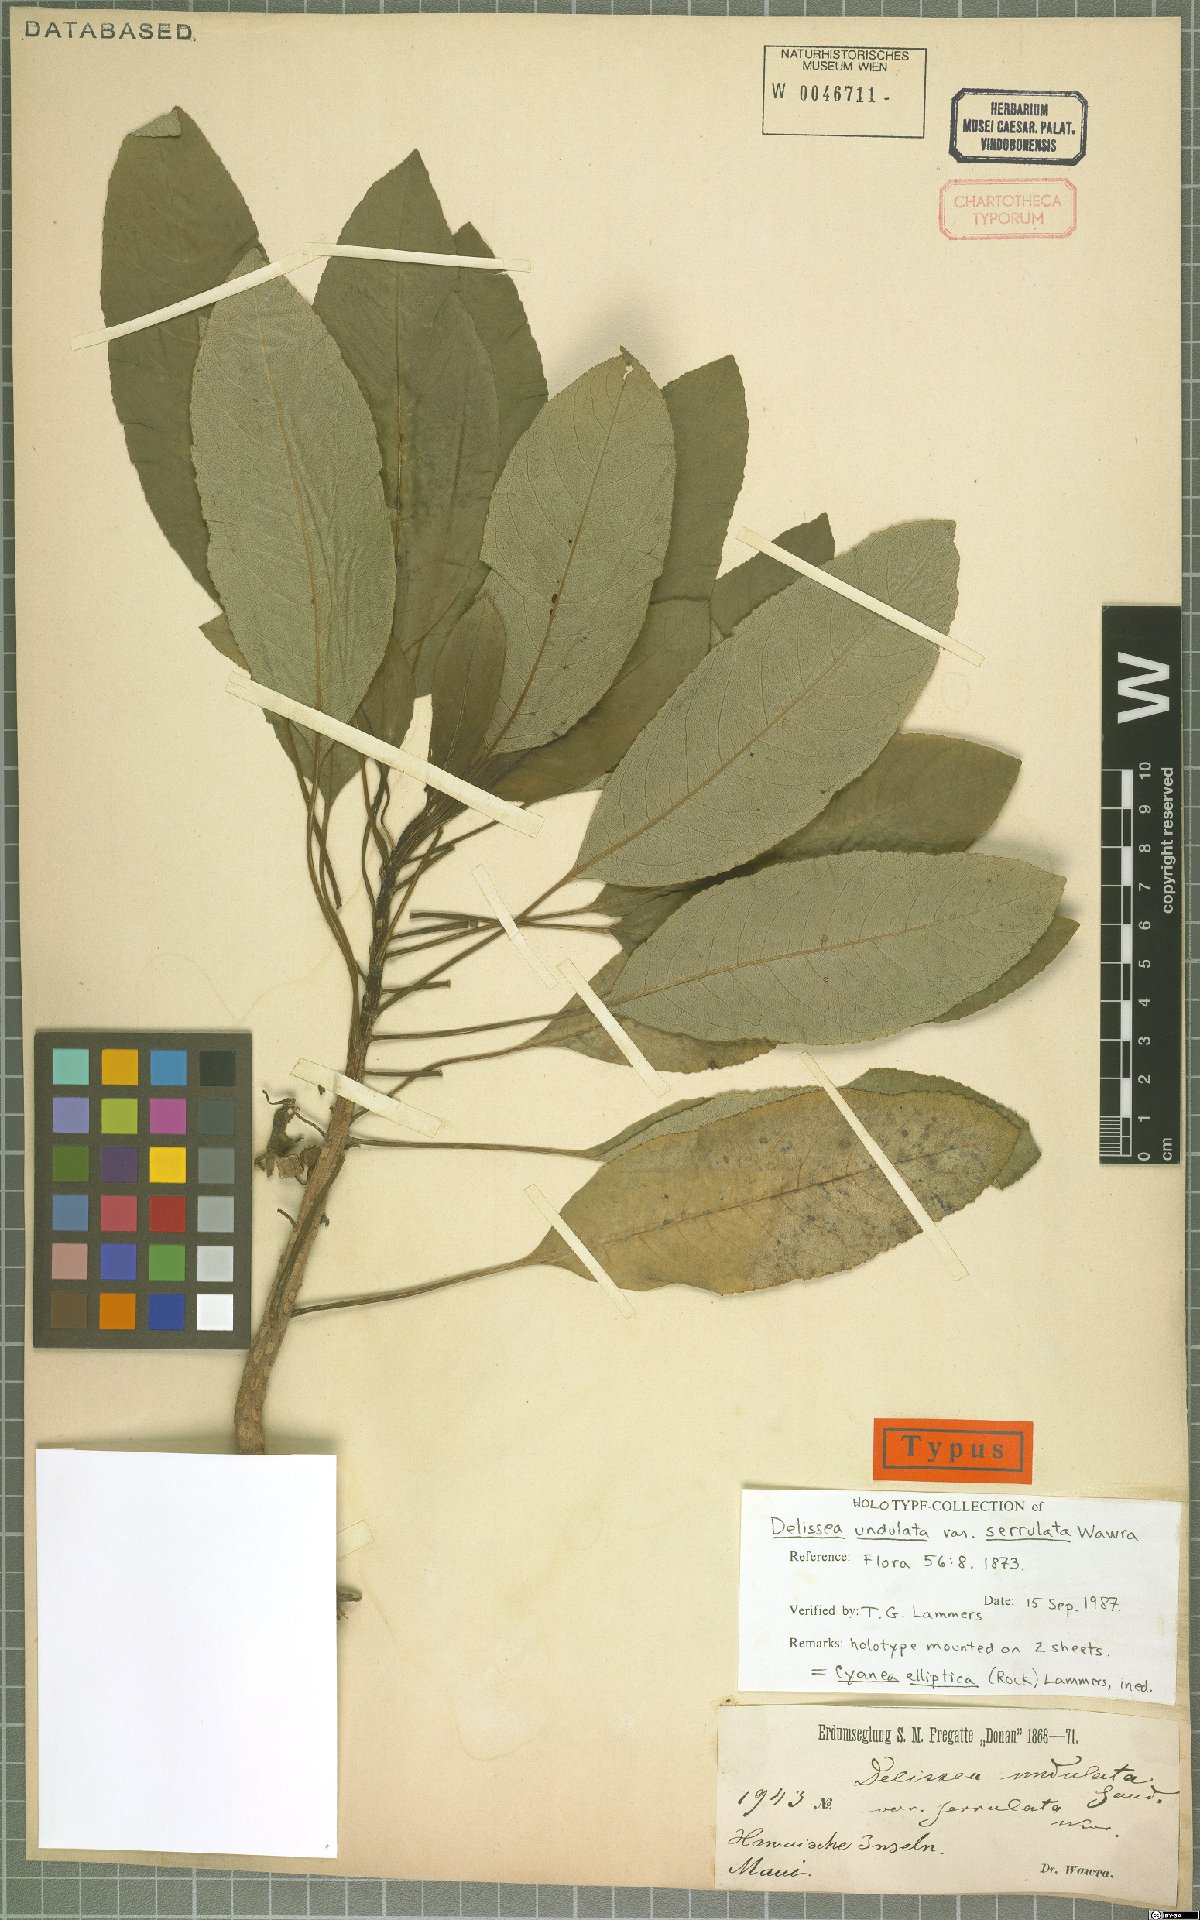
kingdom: Plantae
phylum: Tracheophyta
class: Magnoliopsida
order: Asterales
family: Campanulaceae
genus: Cyanea
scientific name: Cyanea elliptica
